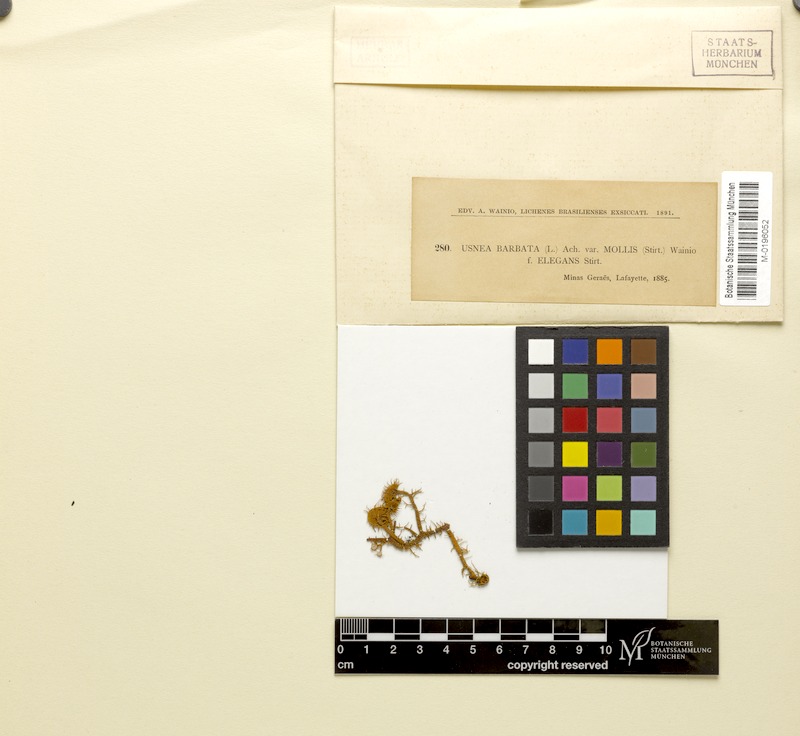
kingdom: Fungi
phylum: Ascomycota
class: Lecanoromycetes
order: Lecanorales
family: Parmeliaceae
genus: Usnea
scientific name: Usnea scabrida
